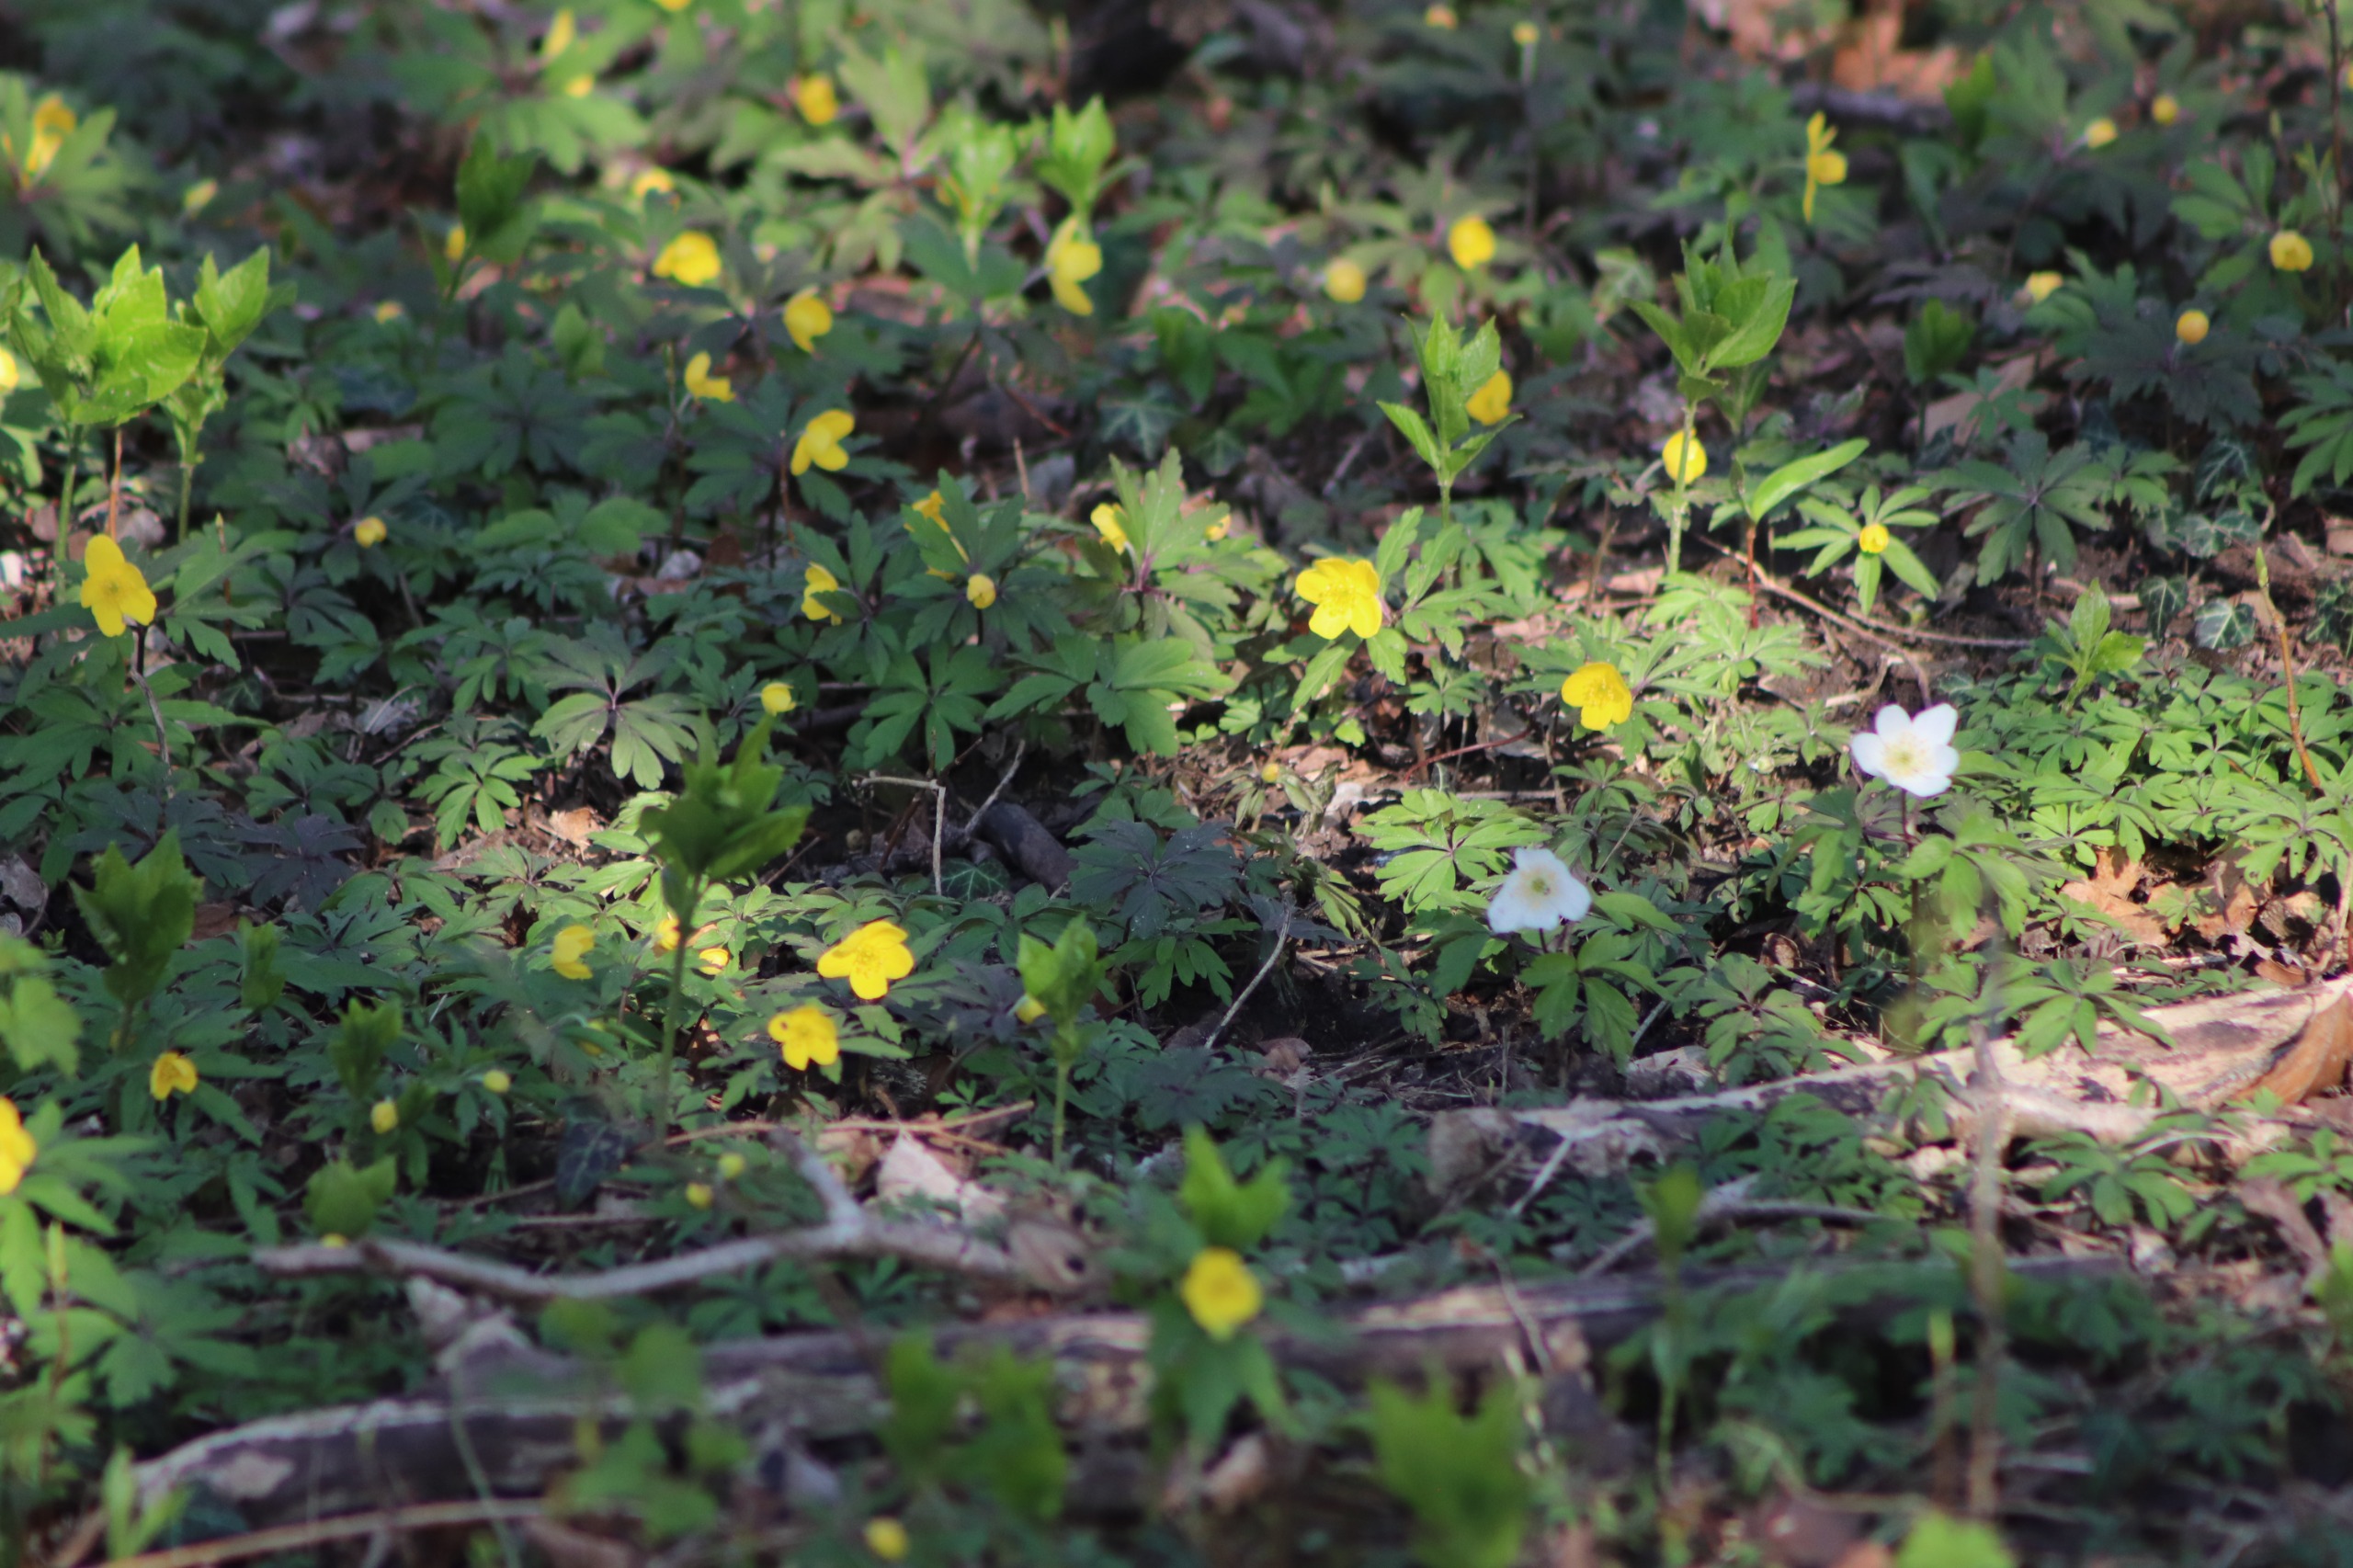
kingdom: Plantae
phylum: Tracheophyta
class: Magnoliopsida
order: Ranunculales
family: Ranunculaceae
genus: Anemone
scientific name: Anemone nemorosa
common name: Hvid anemone
